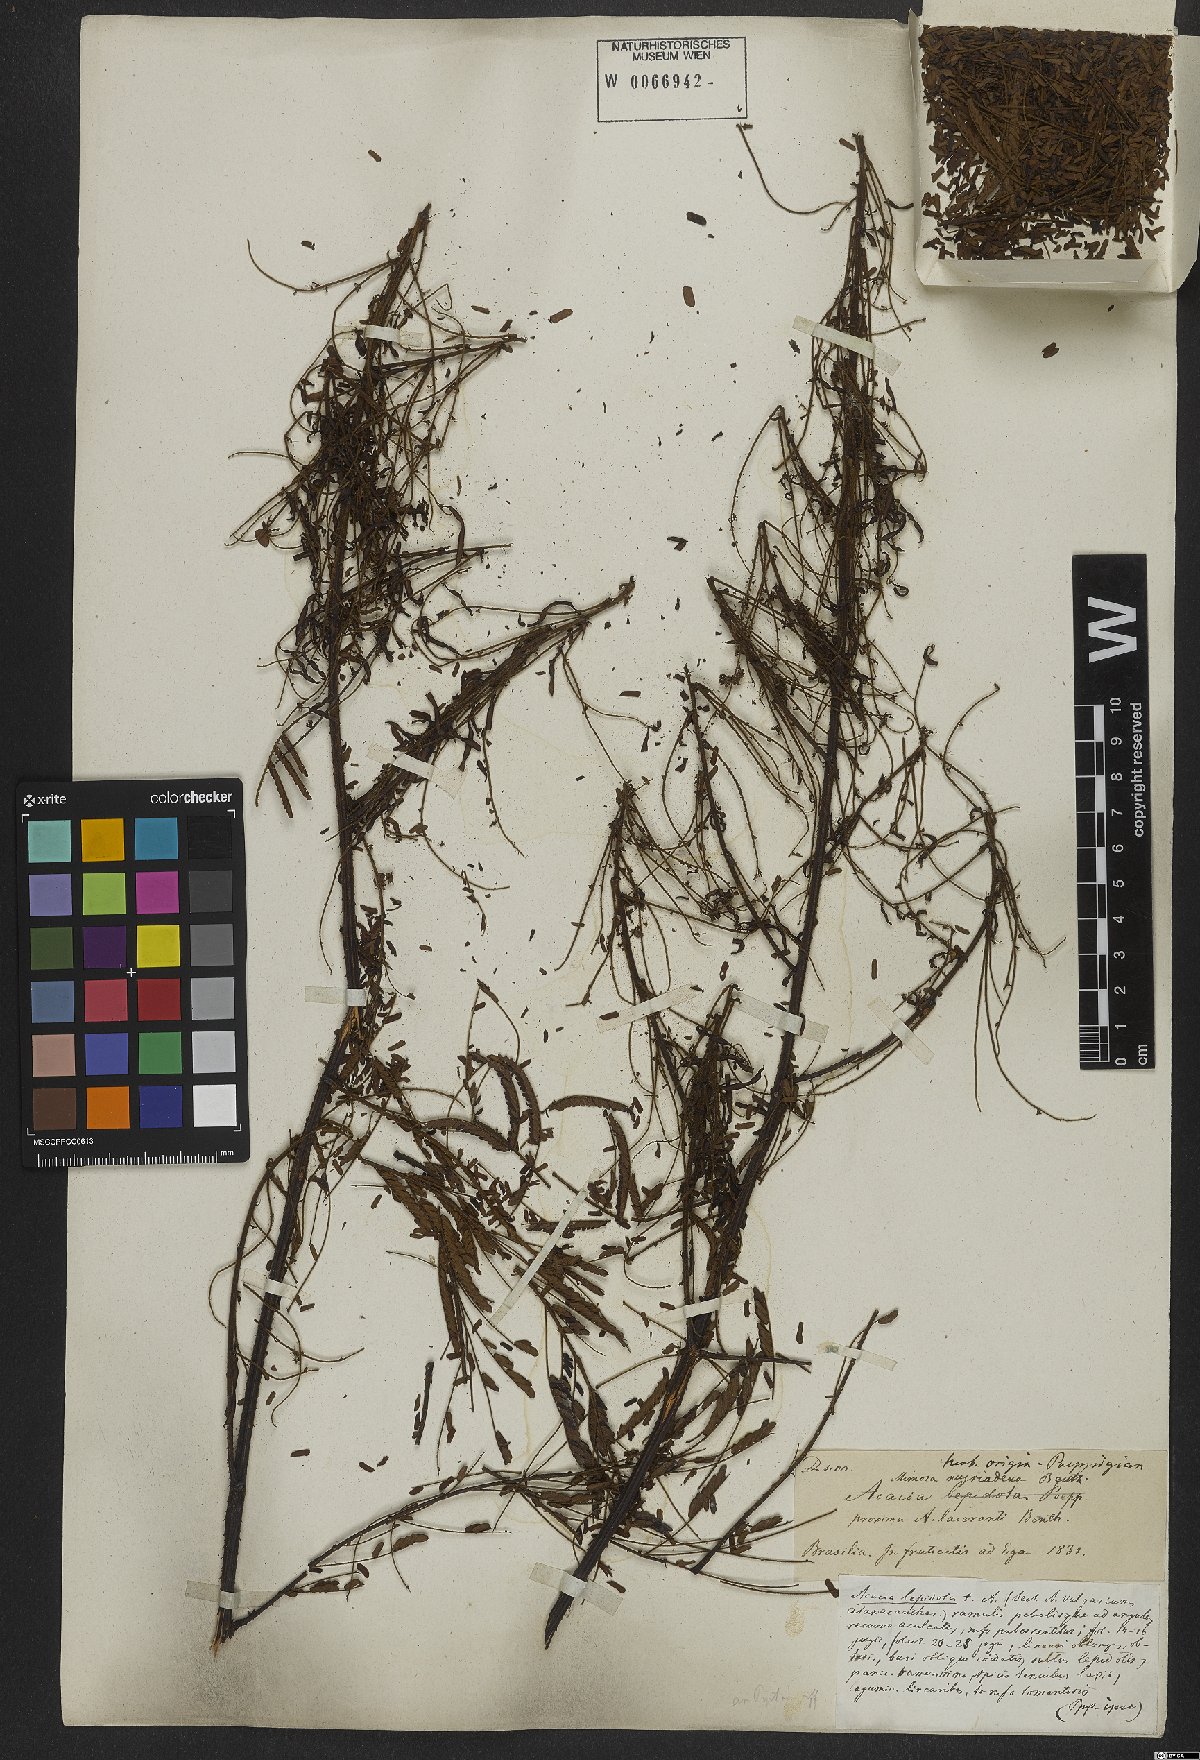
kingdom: Plantae
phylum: Tracheophyta
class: Magnoliopsida
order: Fabales
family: Fabaceae
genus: Mimosa
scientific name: Mimosa myriadenia
